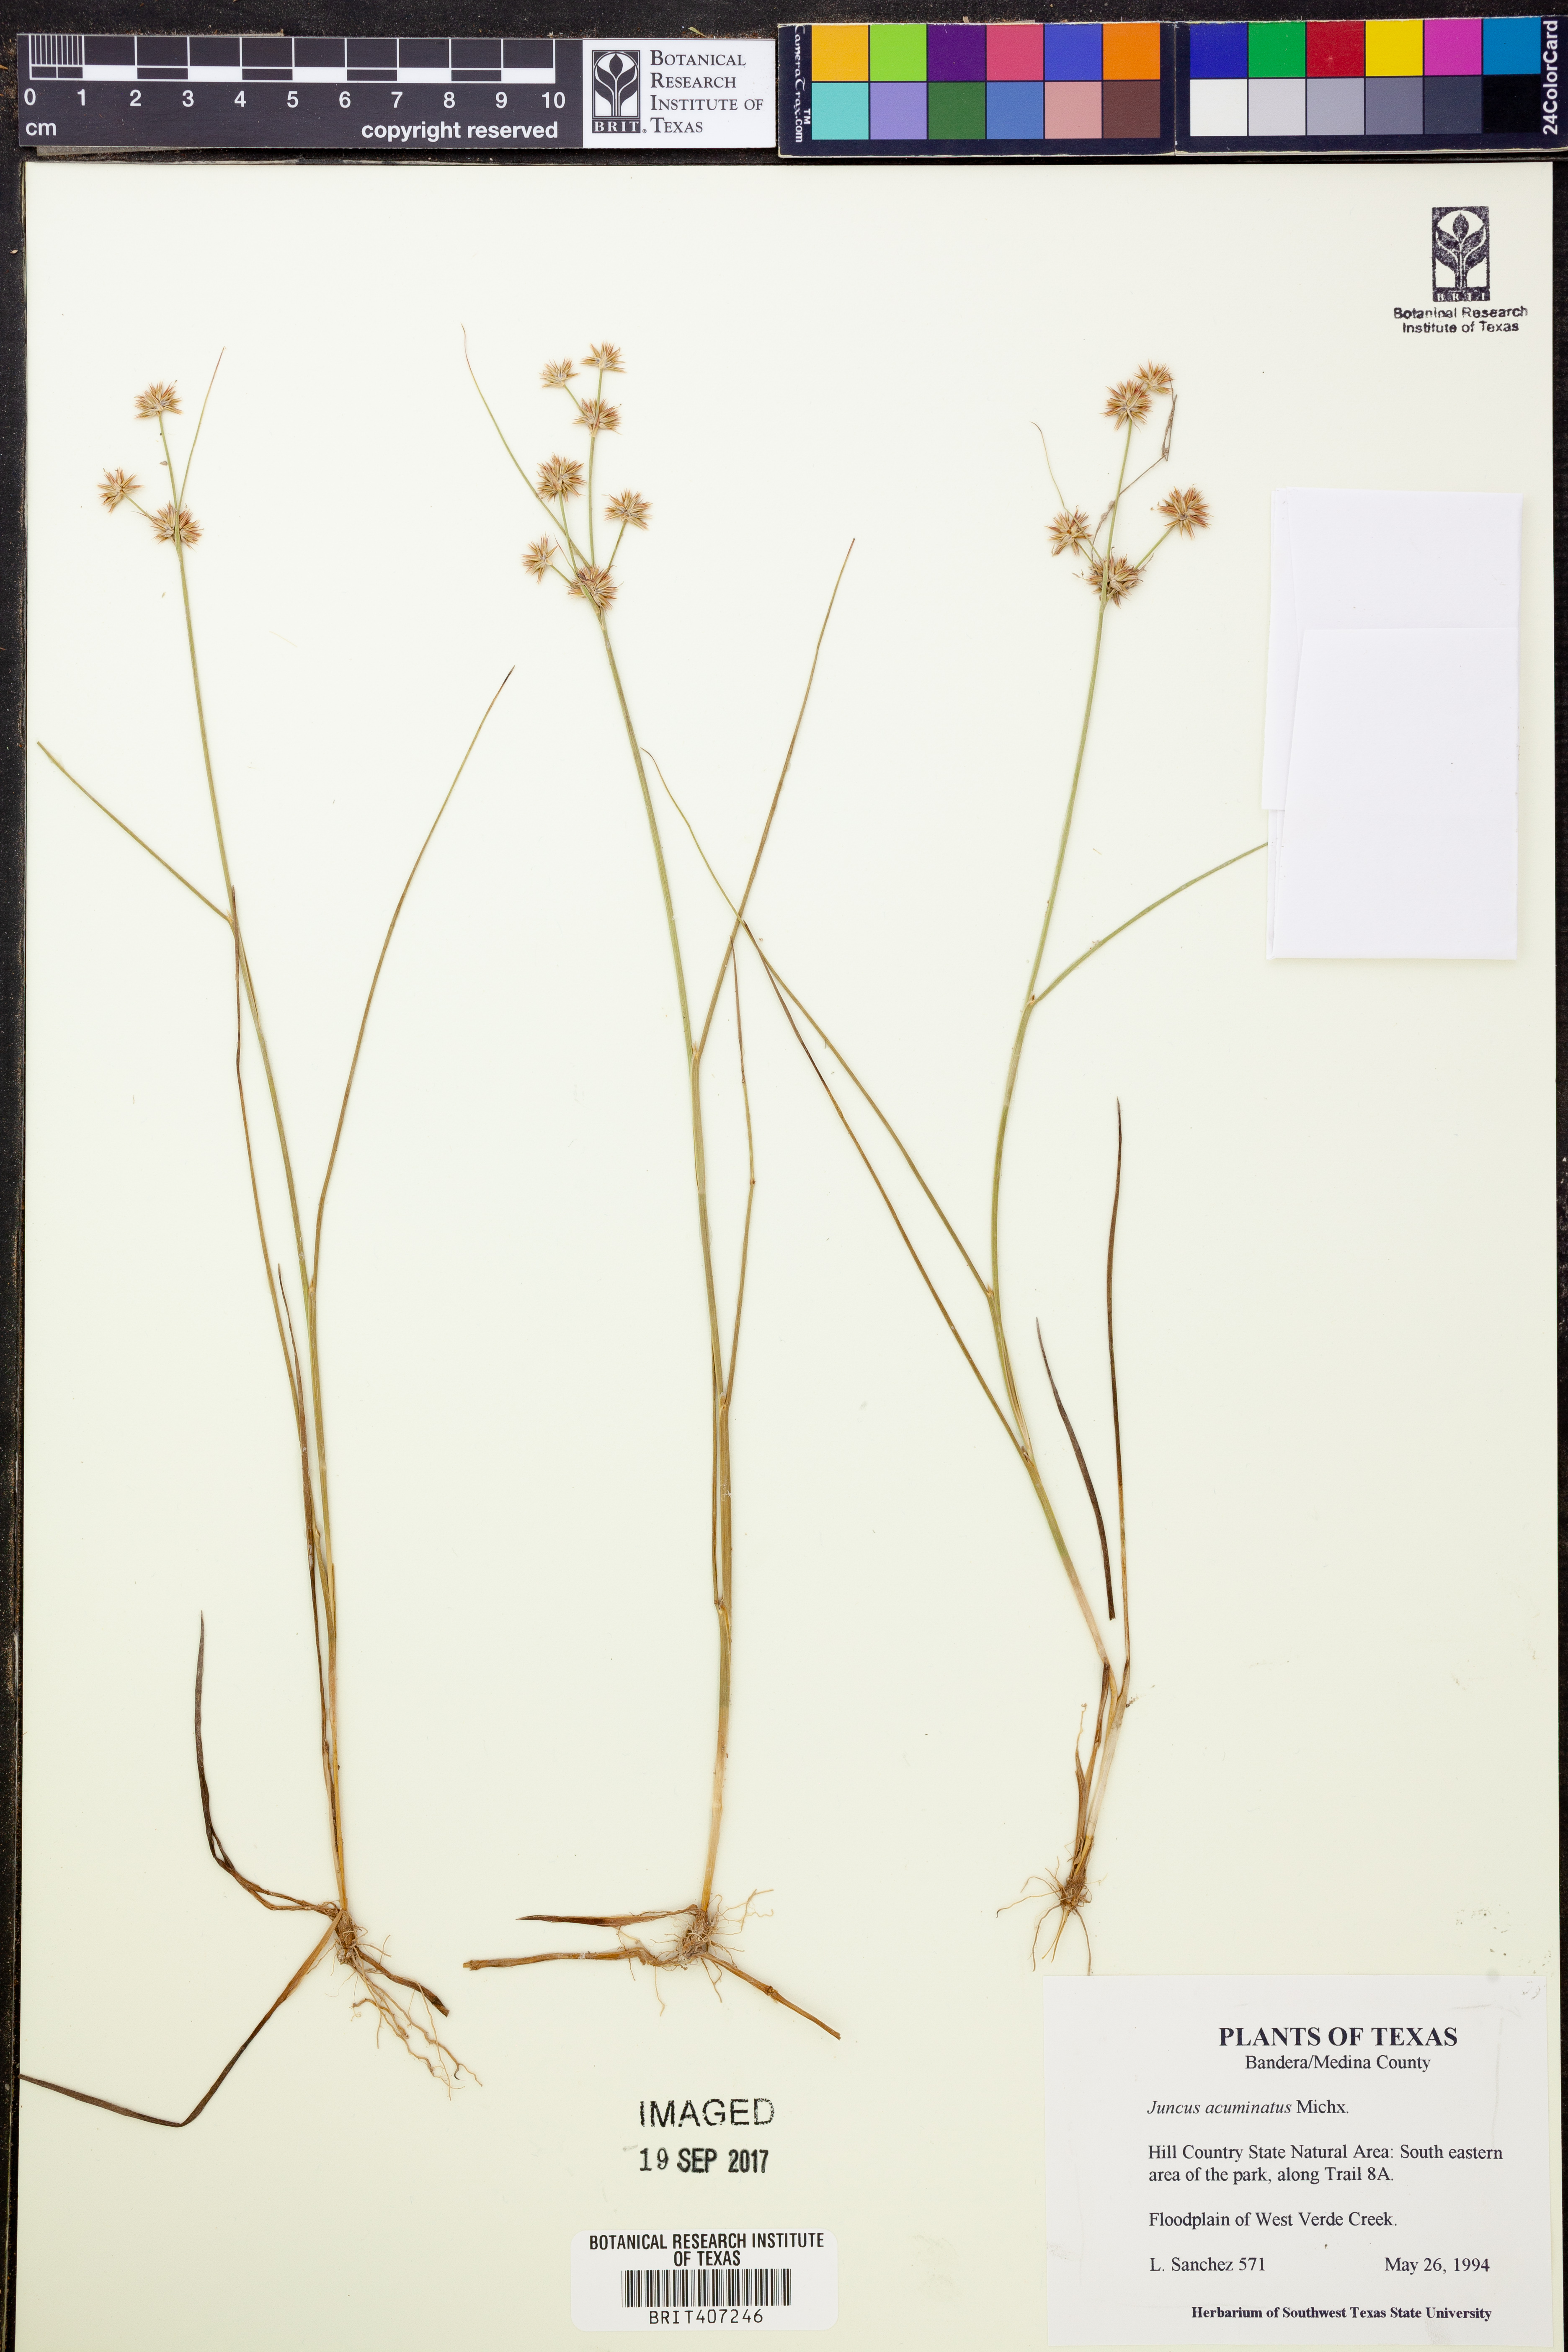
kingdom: Plantae
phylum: Tracheophyta
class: Liliopsida
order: Poales
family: Juncaceae
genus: Juncus
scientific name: Juncus acuminatus
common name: Knotty-leaved rush
